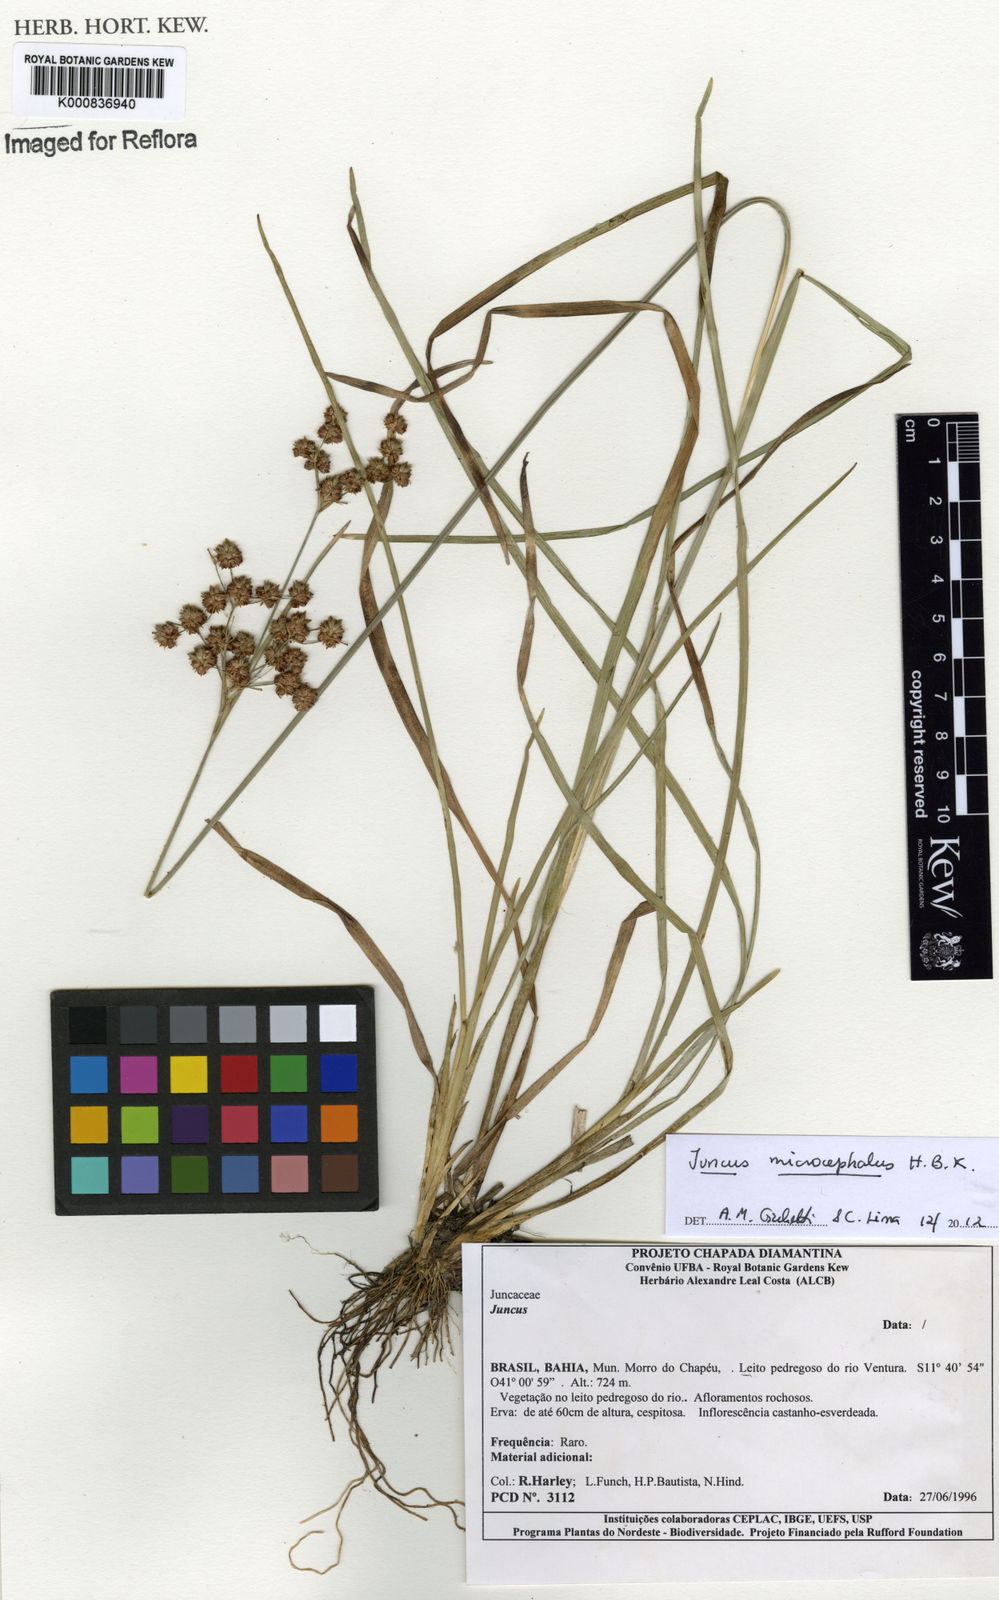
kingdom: Plantae
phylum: Tracheophyta
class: Liliopsida
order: Poales
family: Juncaceae
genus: Juncus
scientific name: Juncus microcephalus
